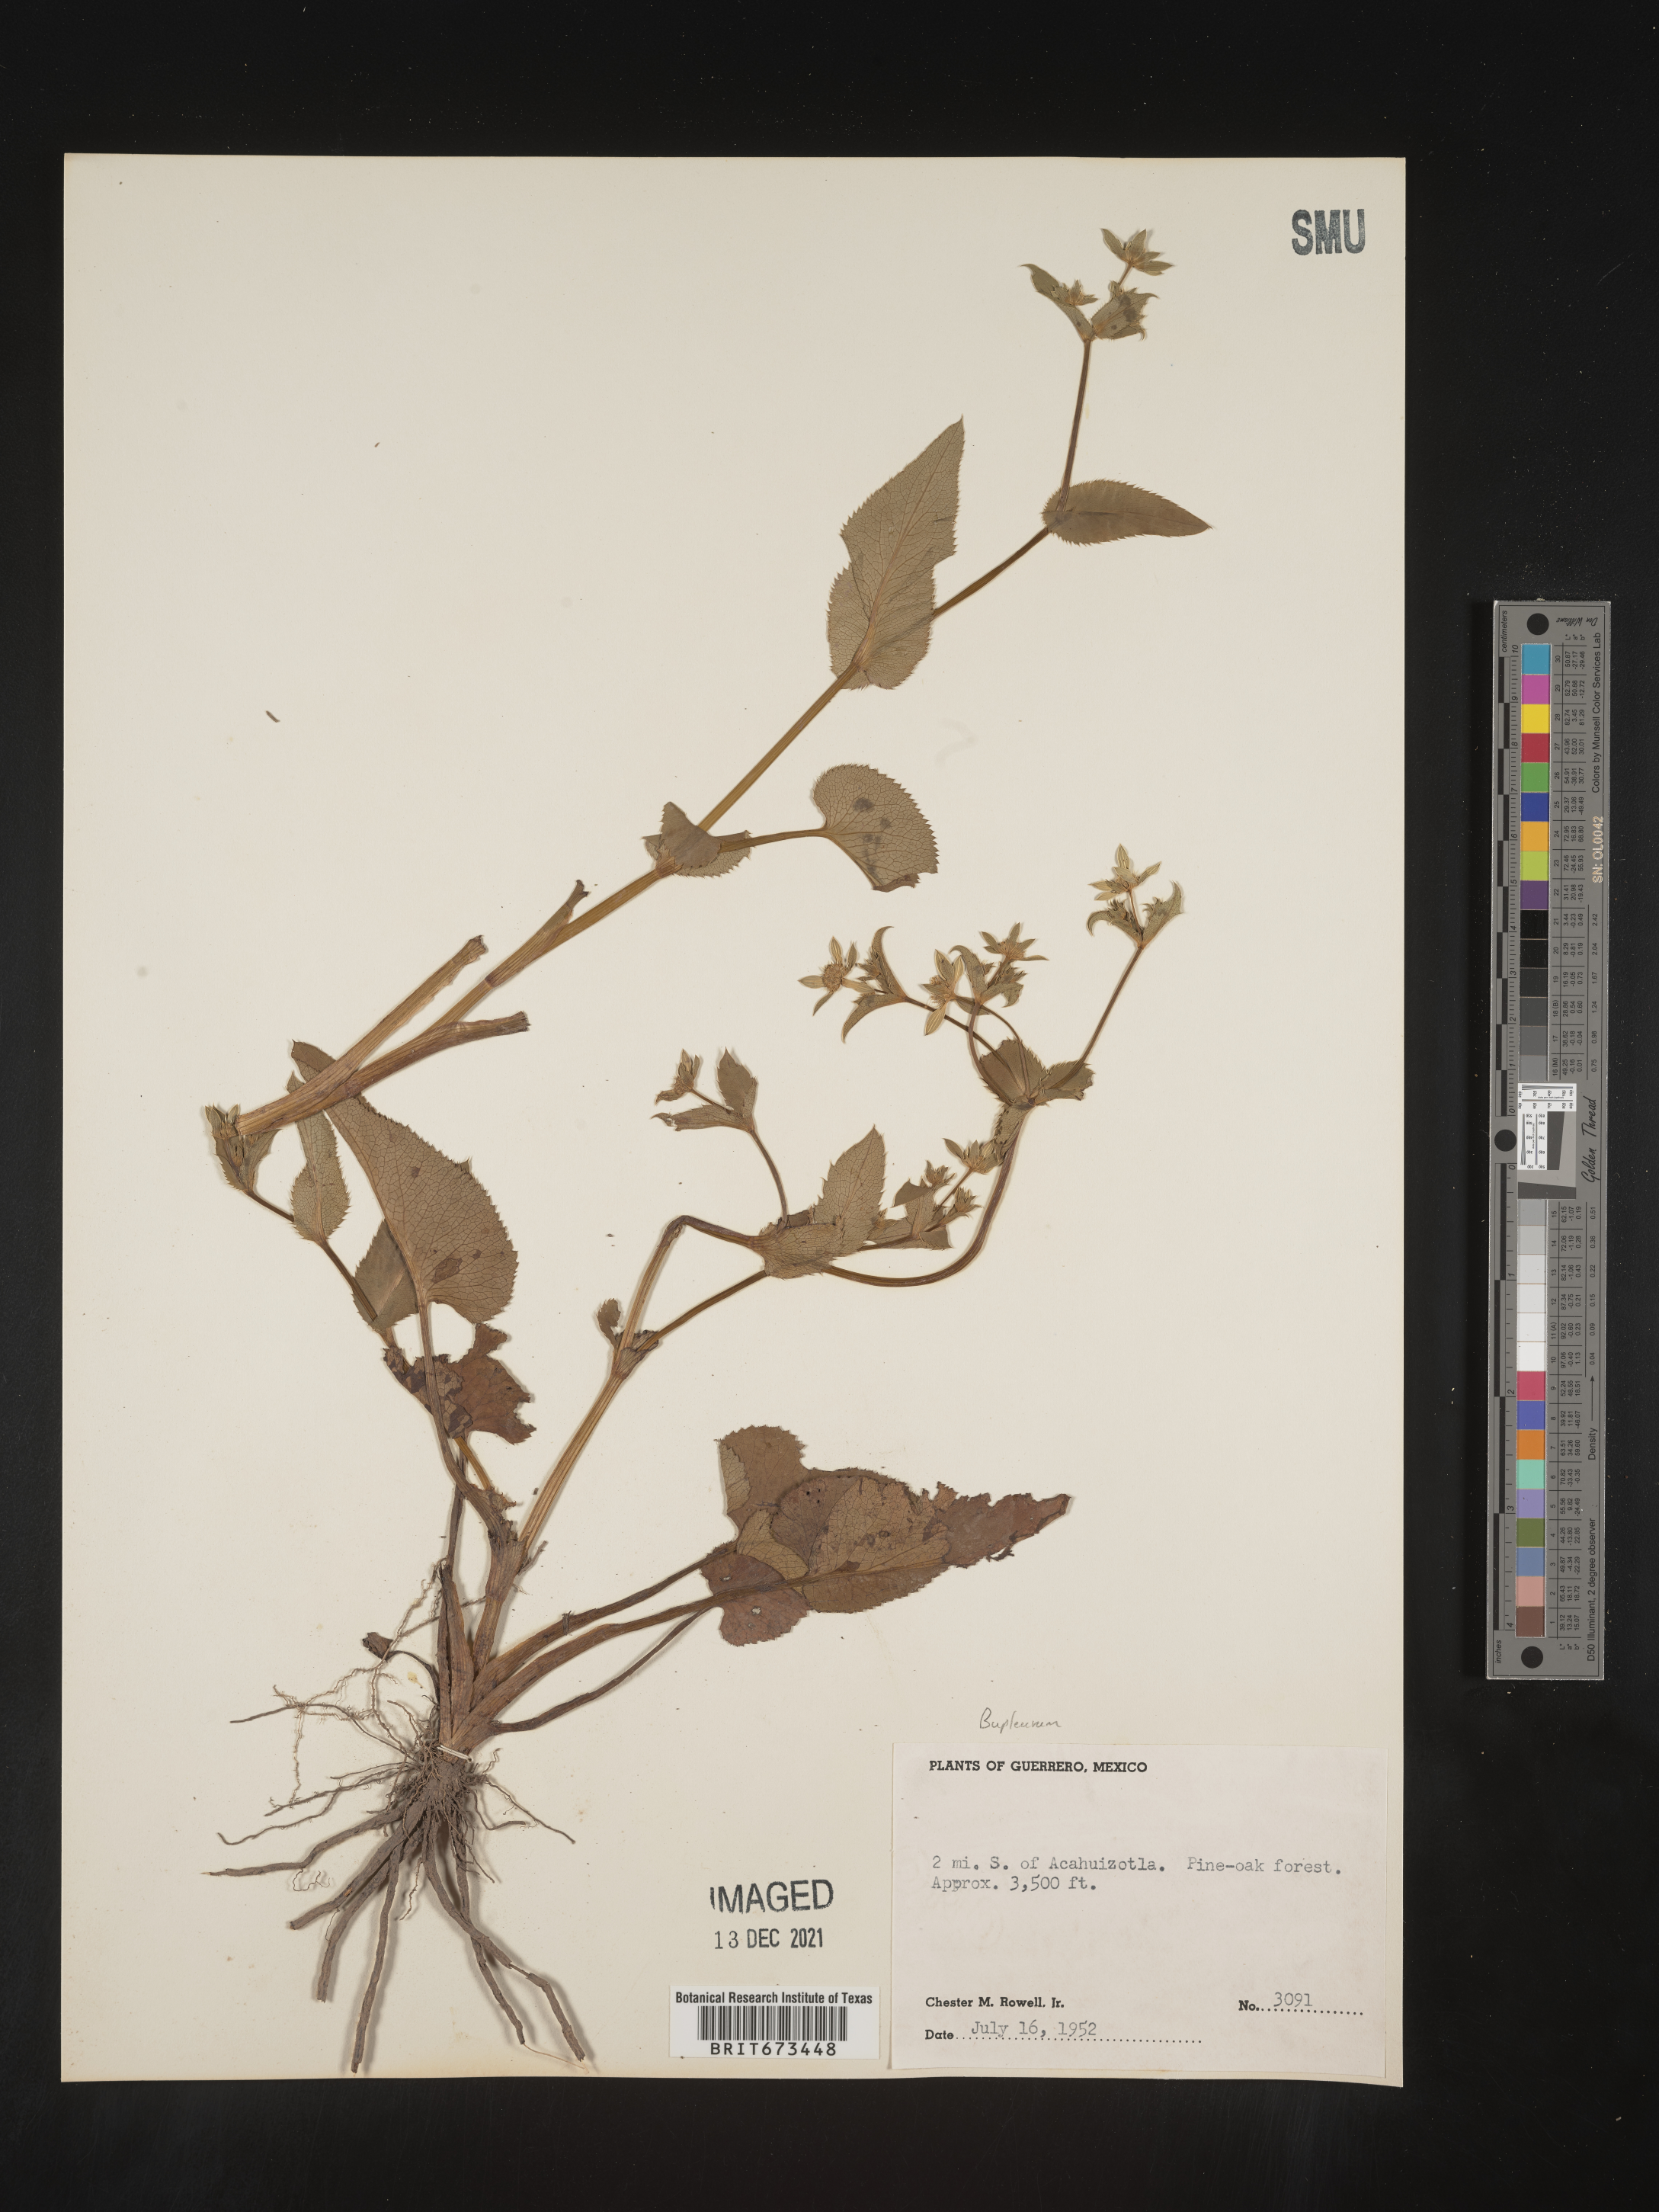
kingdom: Plantae
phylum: Tracheophyta
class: Magnoliopsida
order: Apiales
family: Apiaceae
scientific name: Apiaceae
